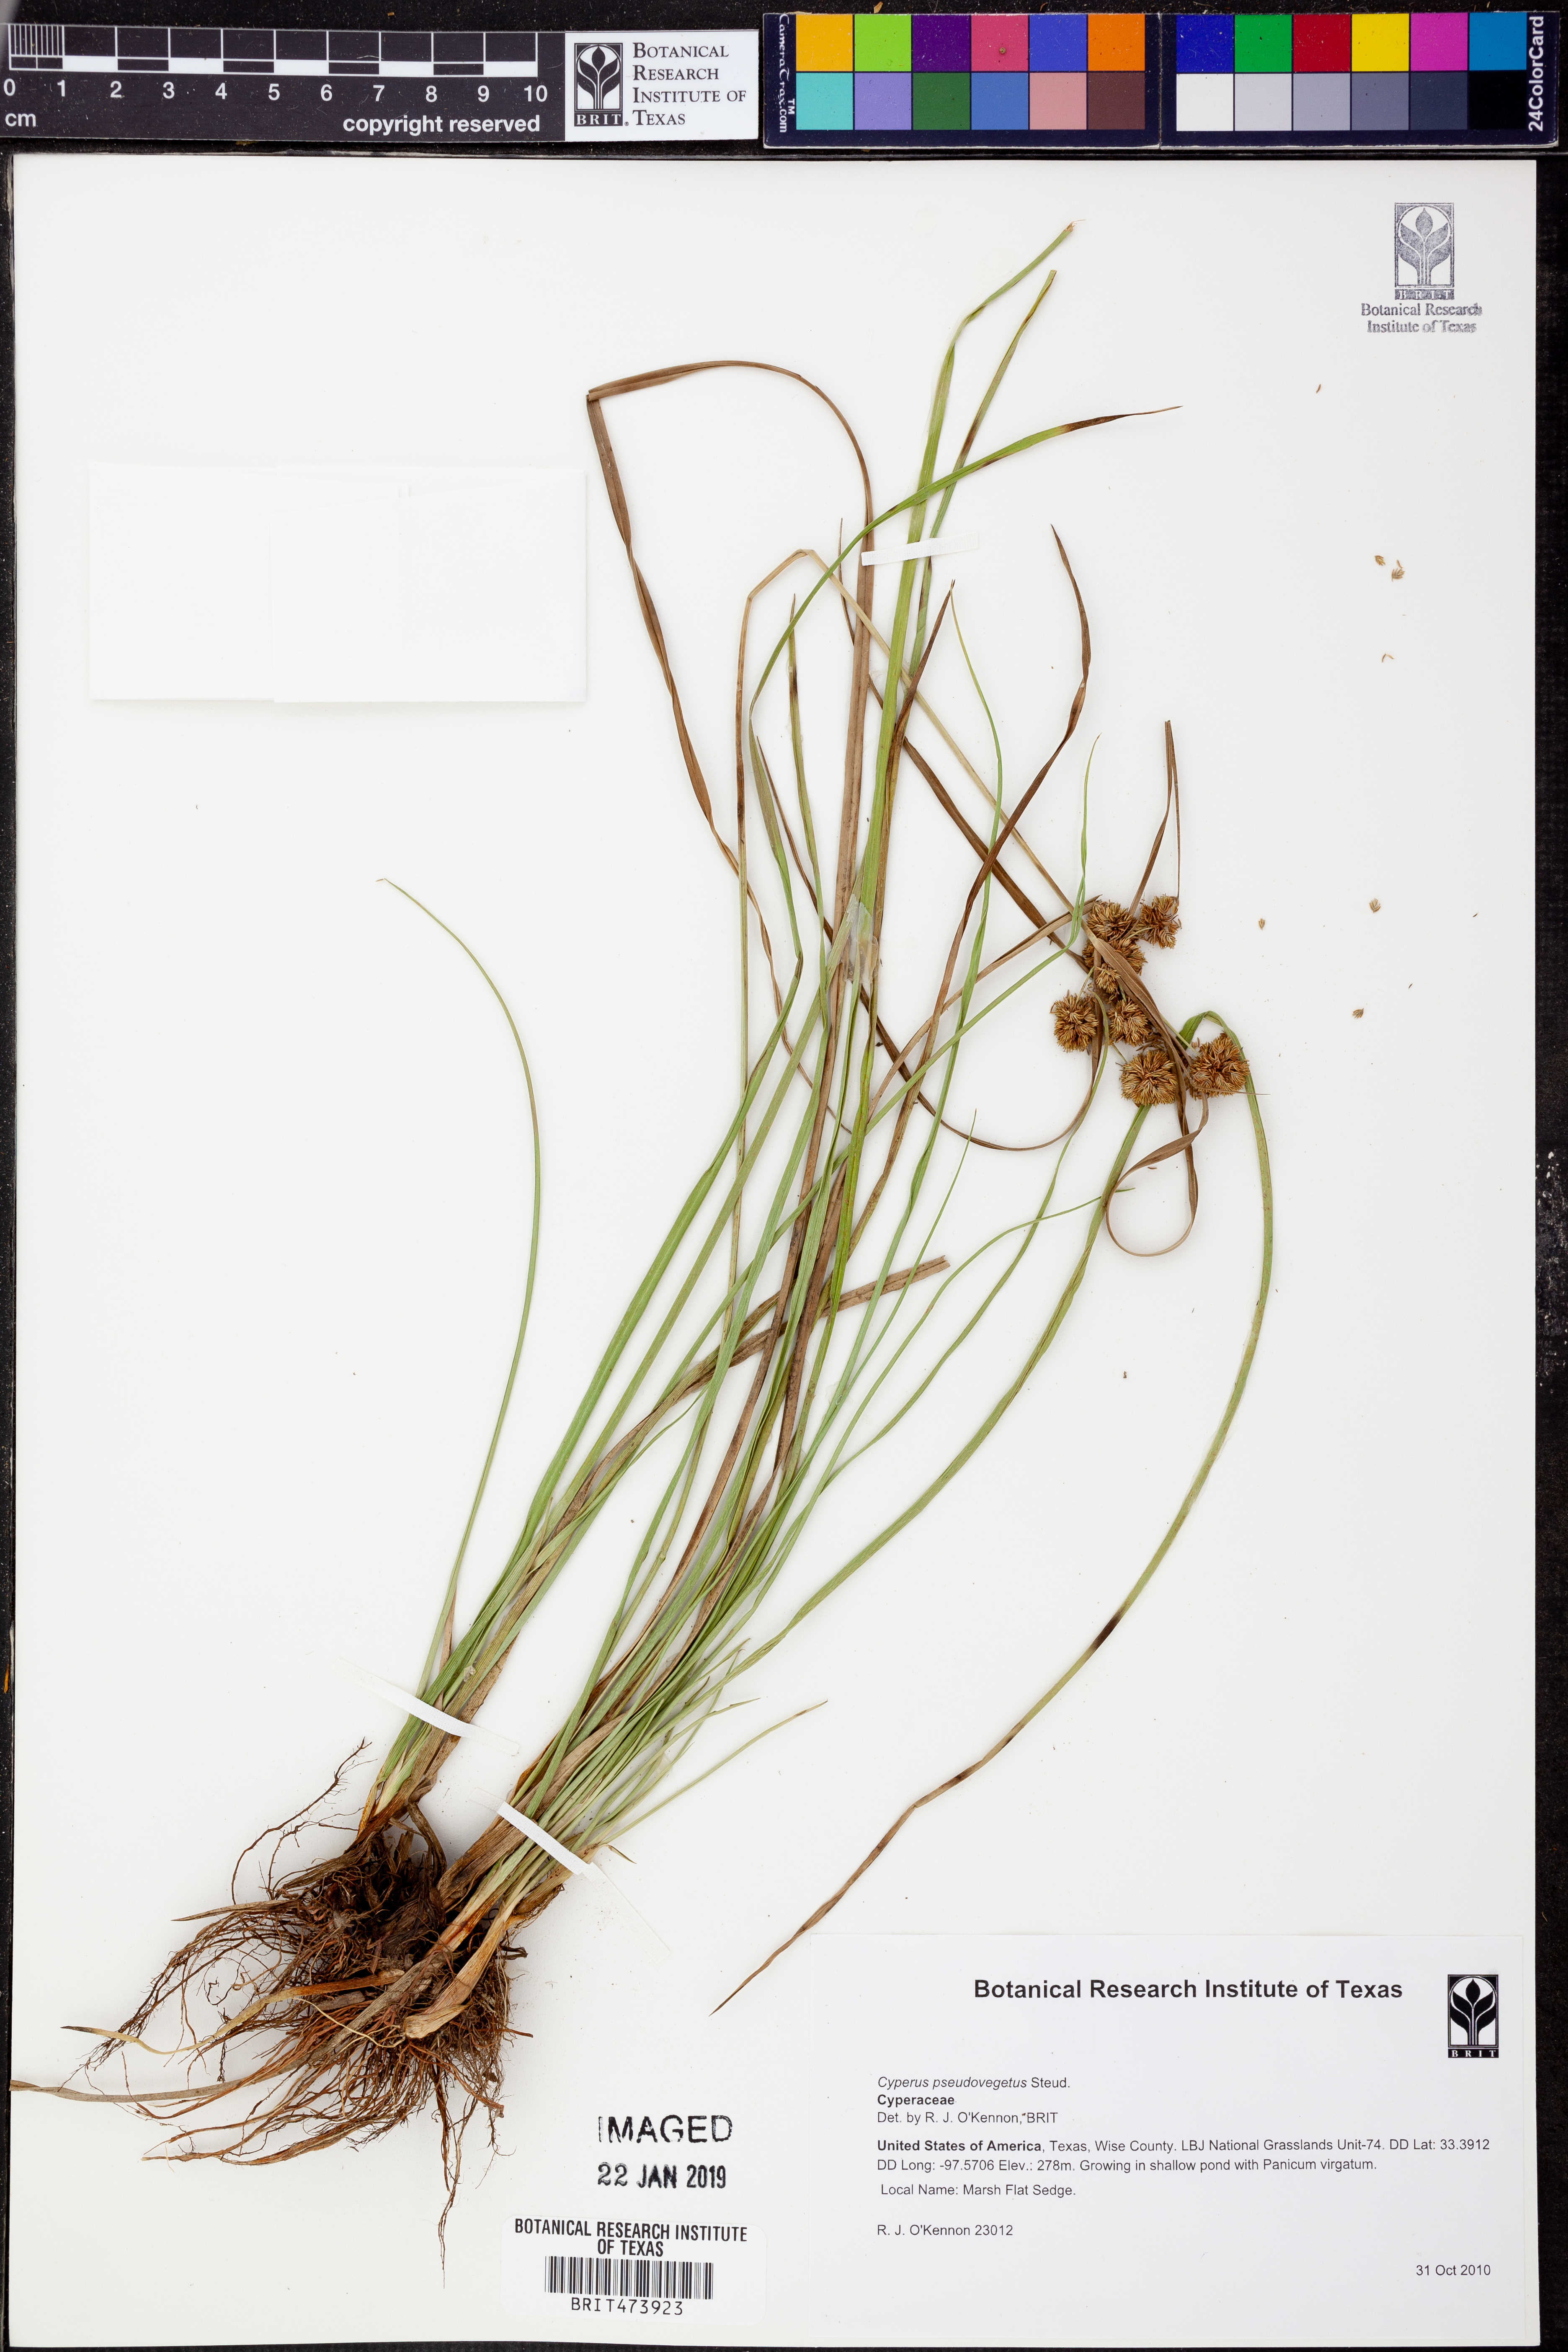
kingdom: Plantae
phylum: Tracheophyta
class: Liliopsida
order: Poales
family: Cyperaceae
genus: Cyperus
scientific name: Cyperus pseudovegetus
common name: Marsh flat sedge
